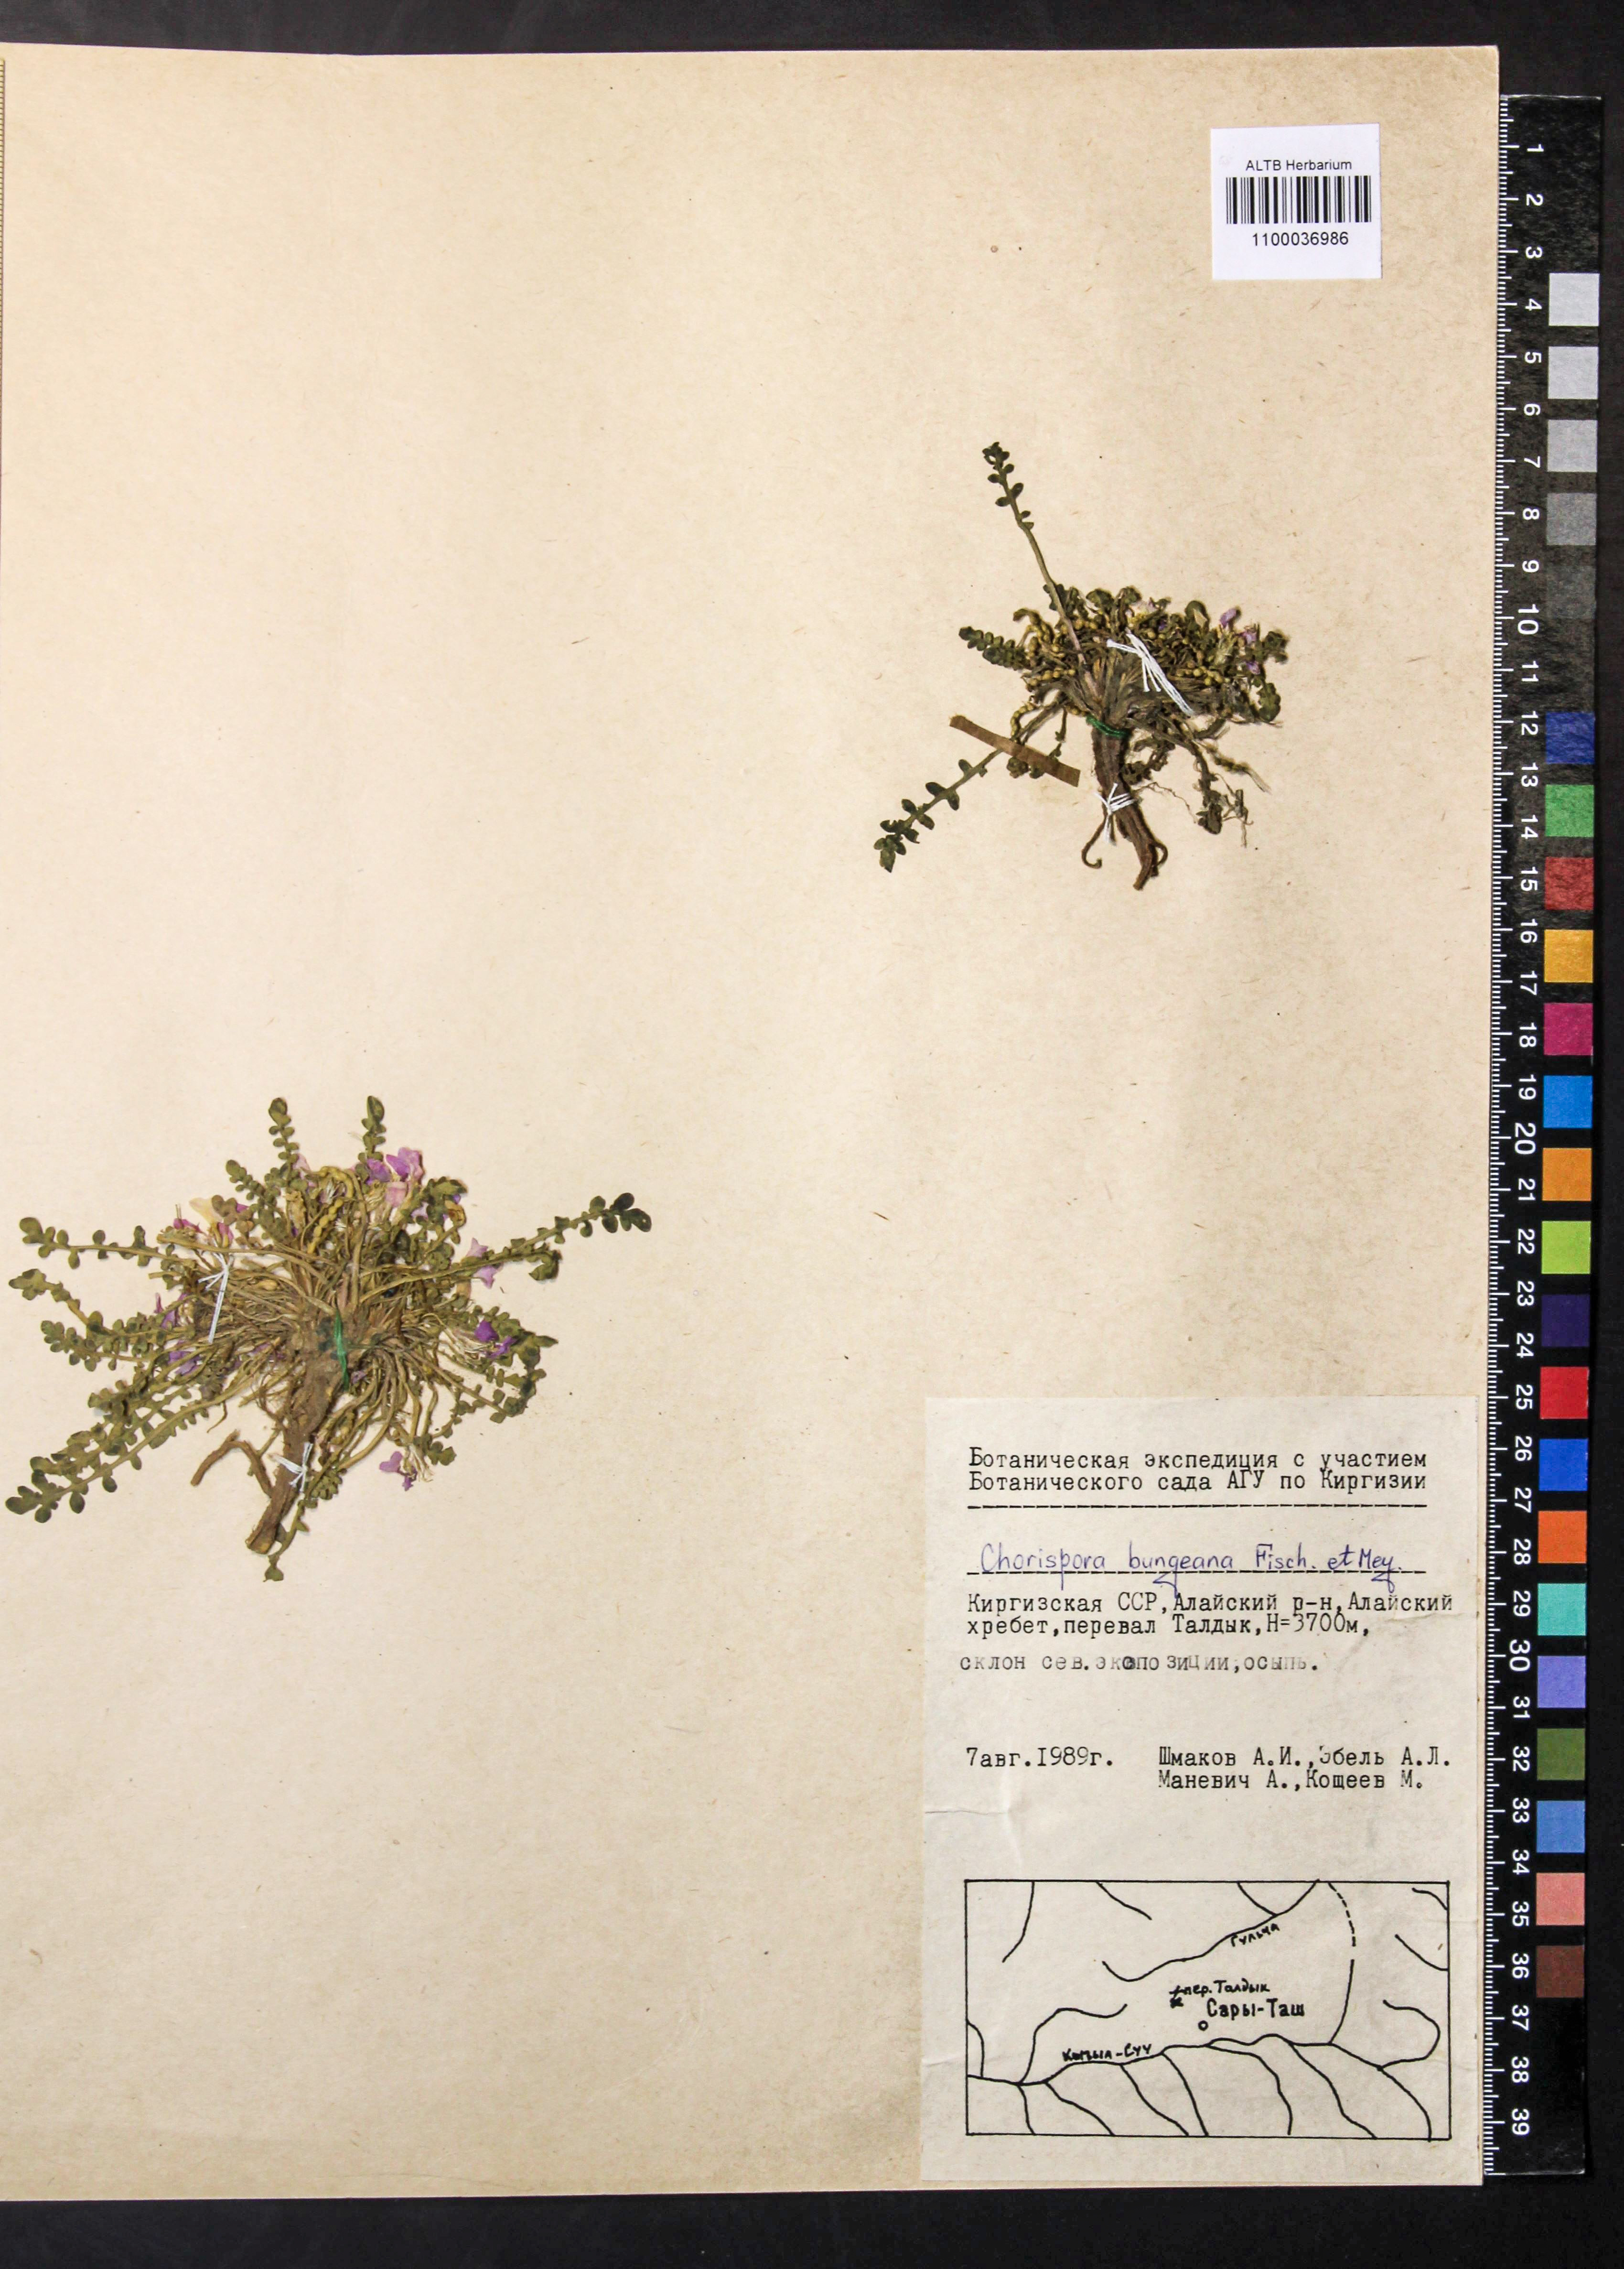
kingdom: Plantae
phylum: Tracheophyta
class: Magnoliopsida
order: Brassicales
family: Brassicaceae
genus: Chorispora
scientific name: Chorispora bungeana
